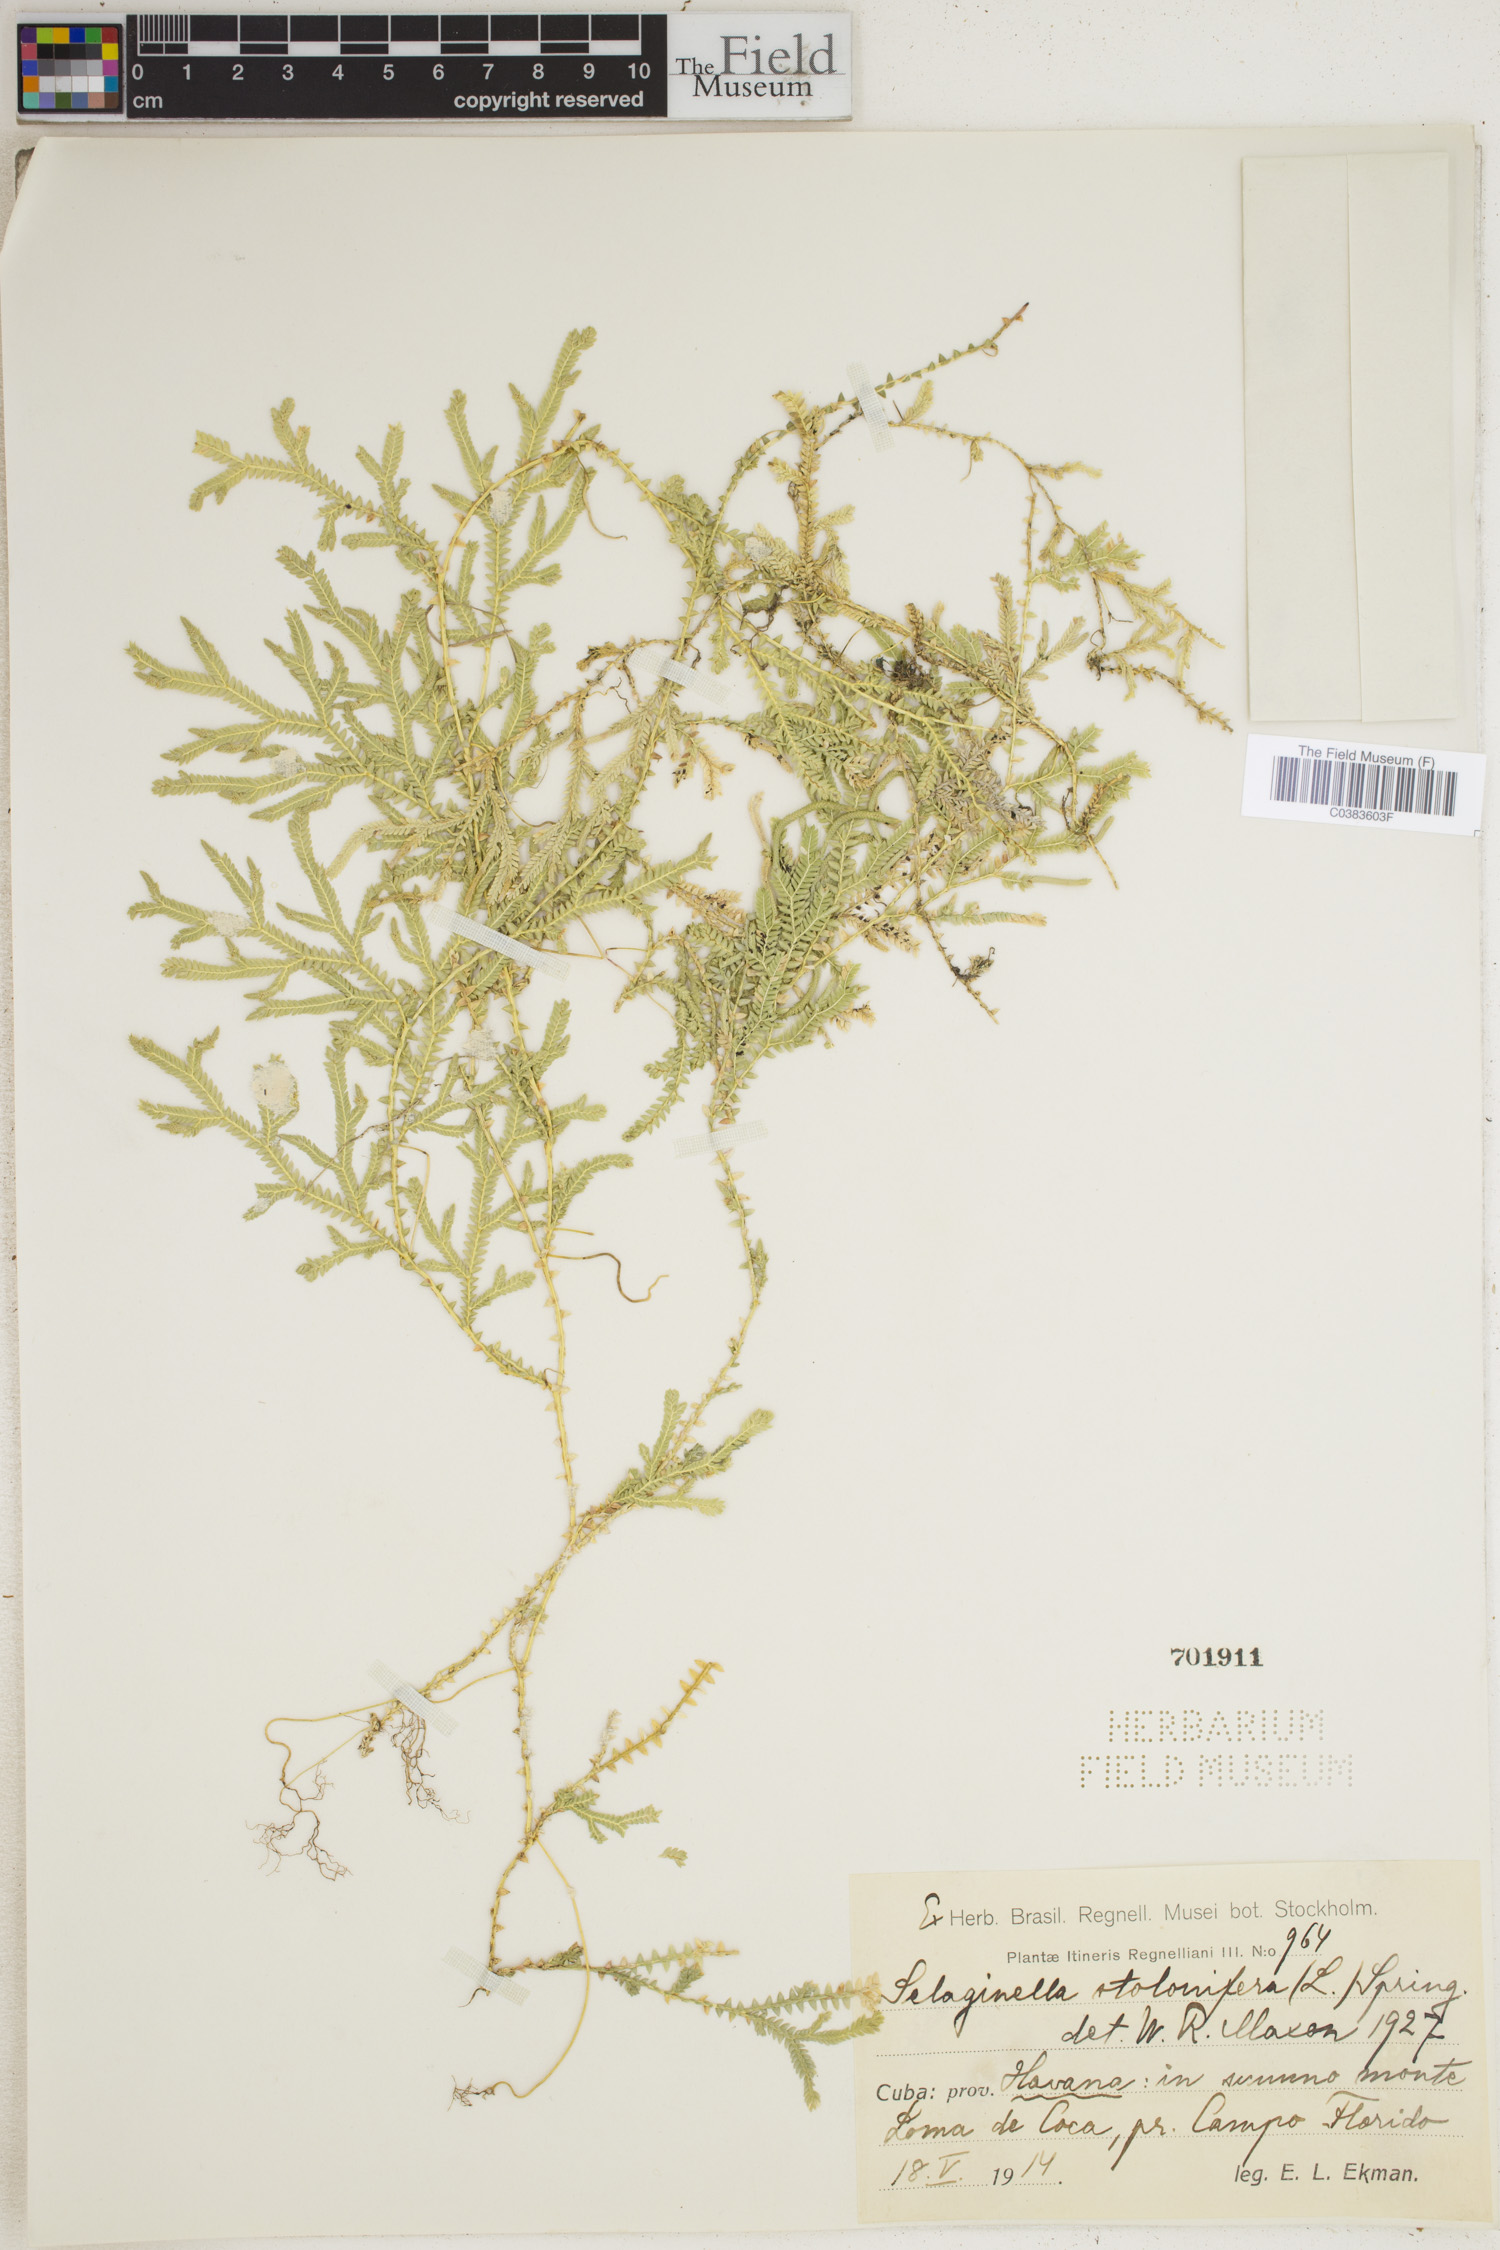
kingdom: Plantae
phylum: Tracheophyta
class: Lycopodiopsida
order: Selaginellales
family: Selaginellaceae
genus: Selaginella
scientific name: Selaginella plumosa
